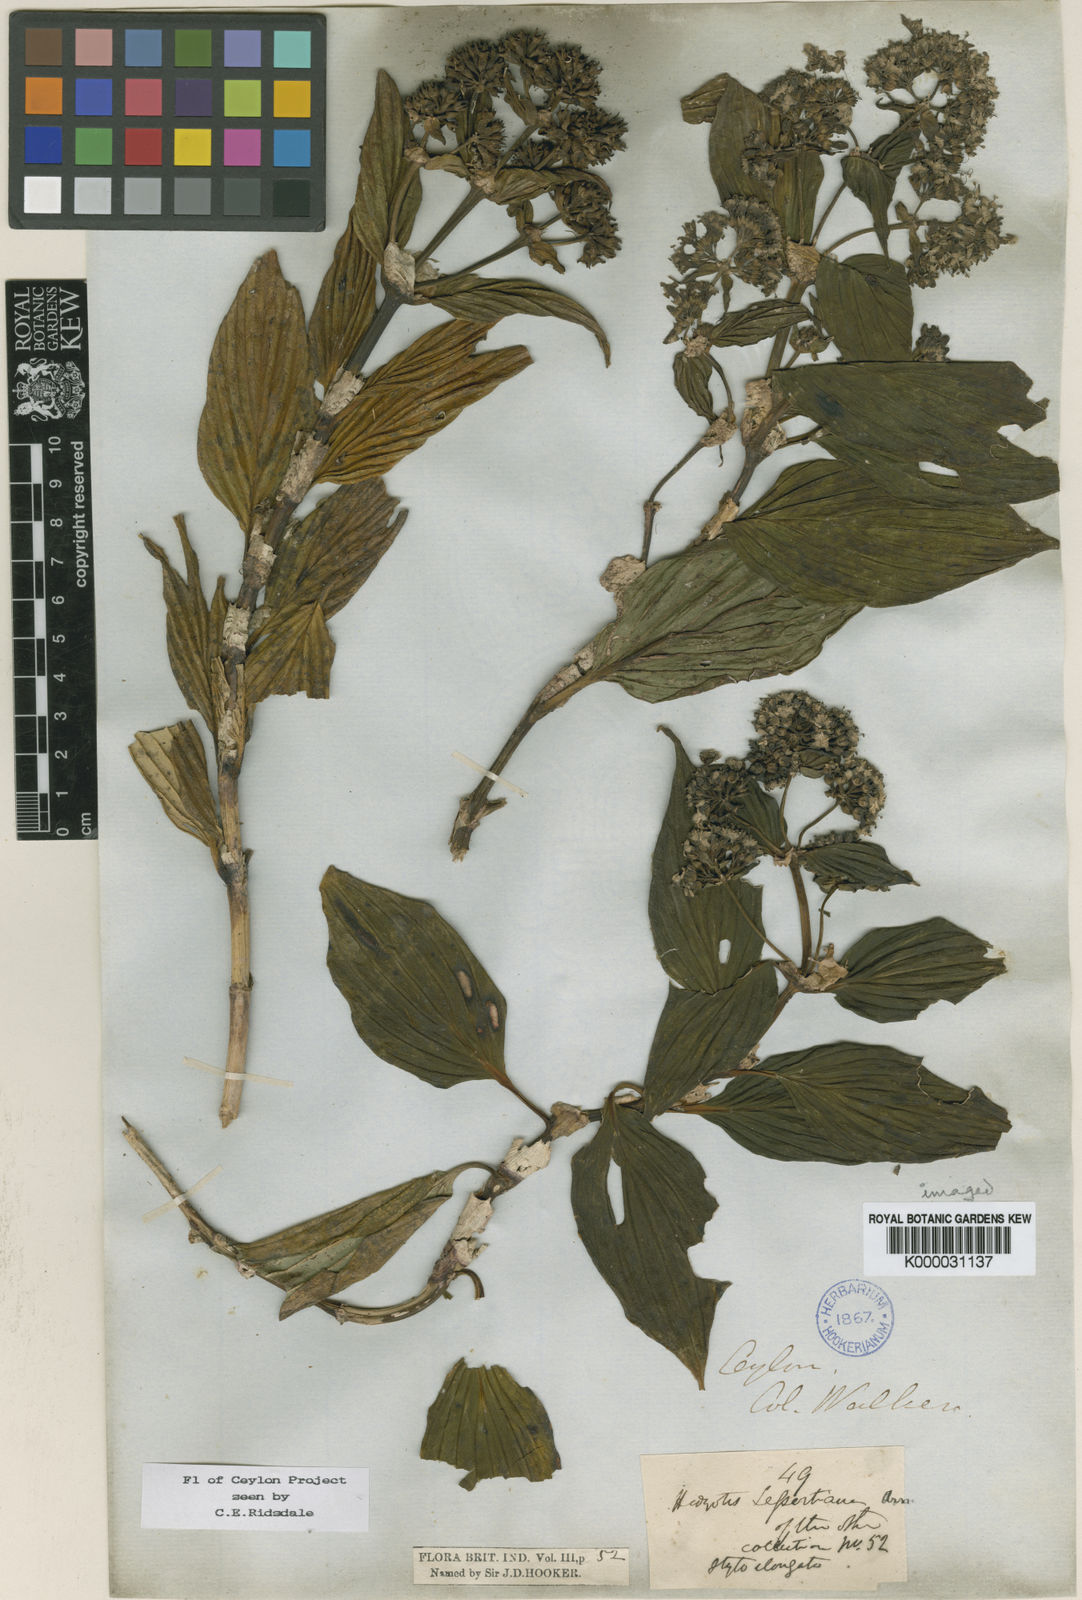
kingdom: Plantae
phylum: Tracheophyta
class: Magnoliopsida
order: Gentianales
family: Rubiaceae
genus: Hedyotis
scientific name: Hedyotis lessertiana
